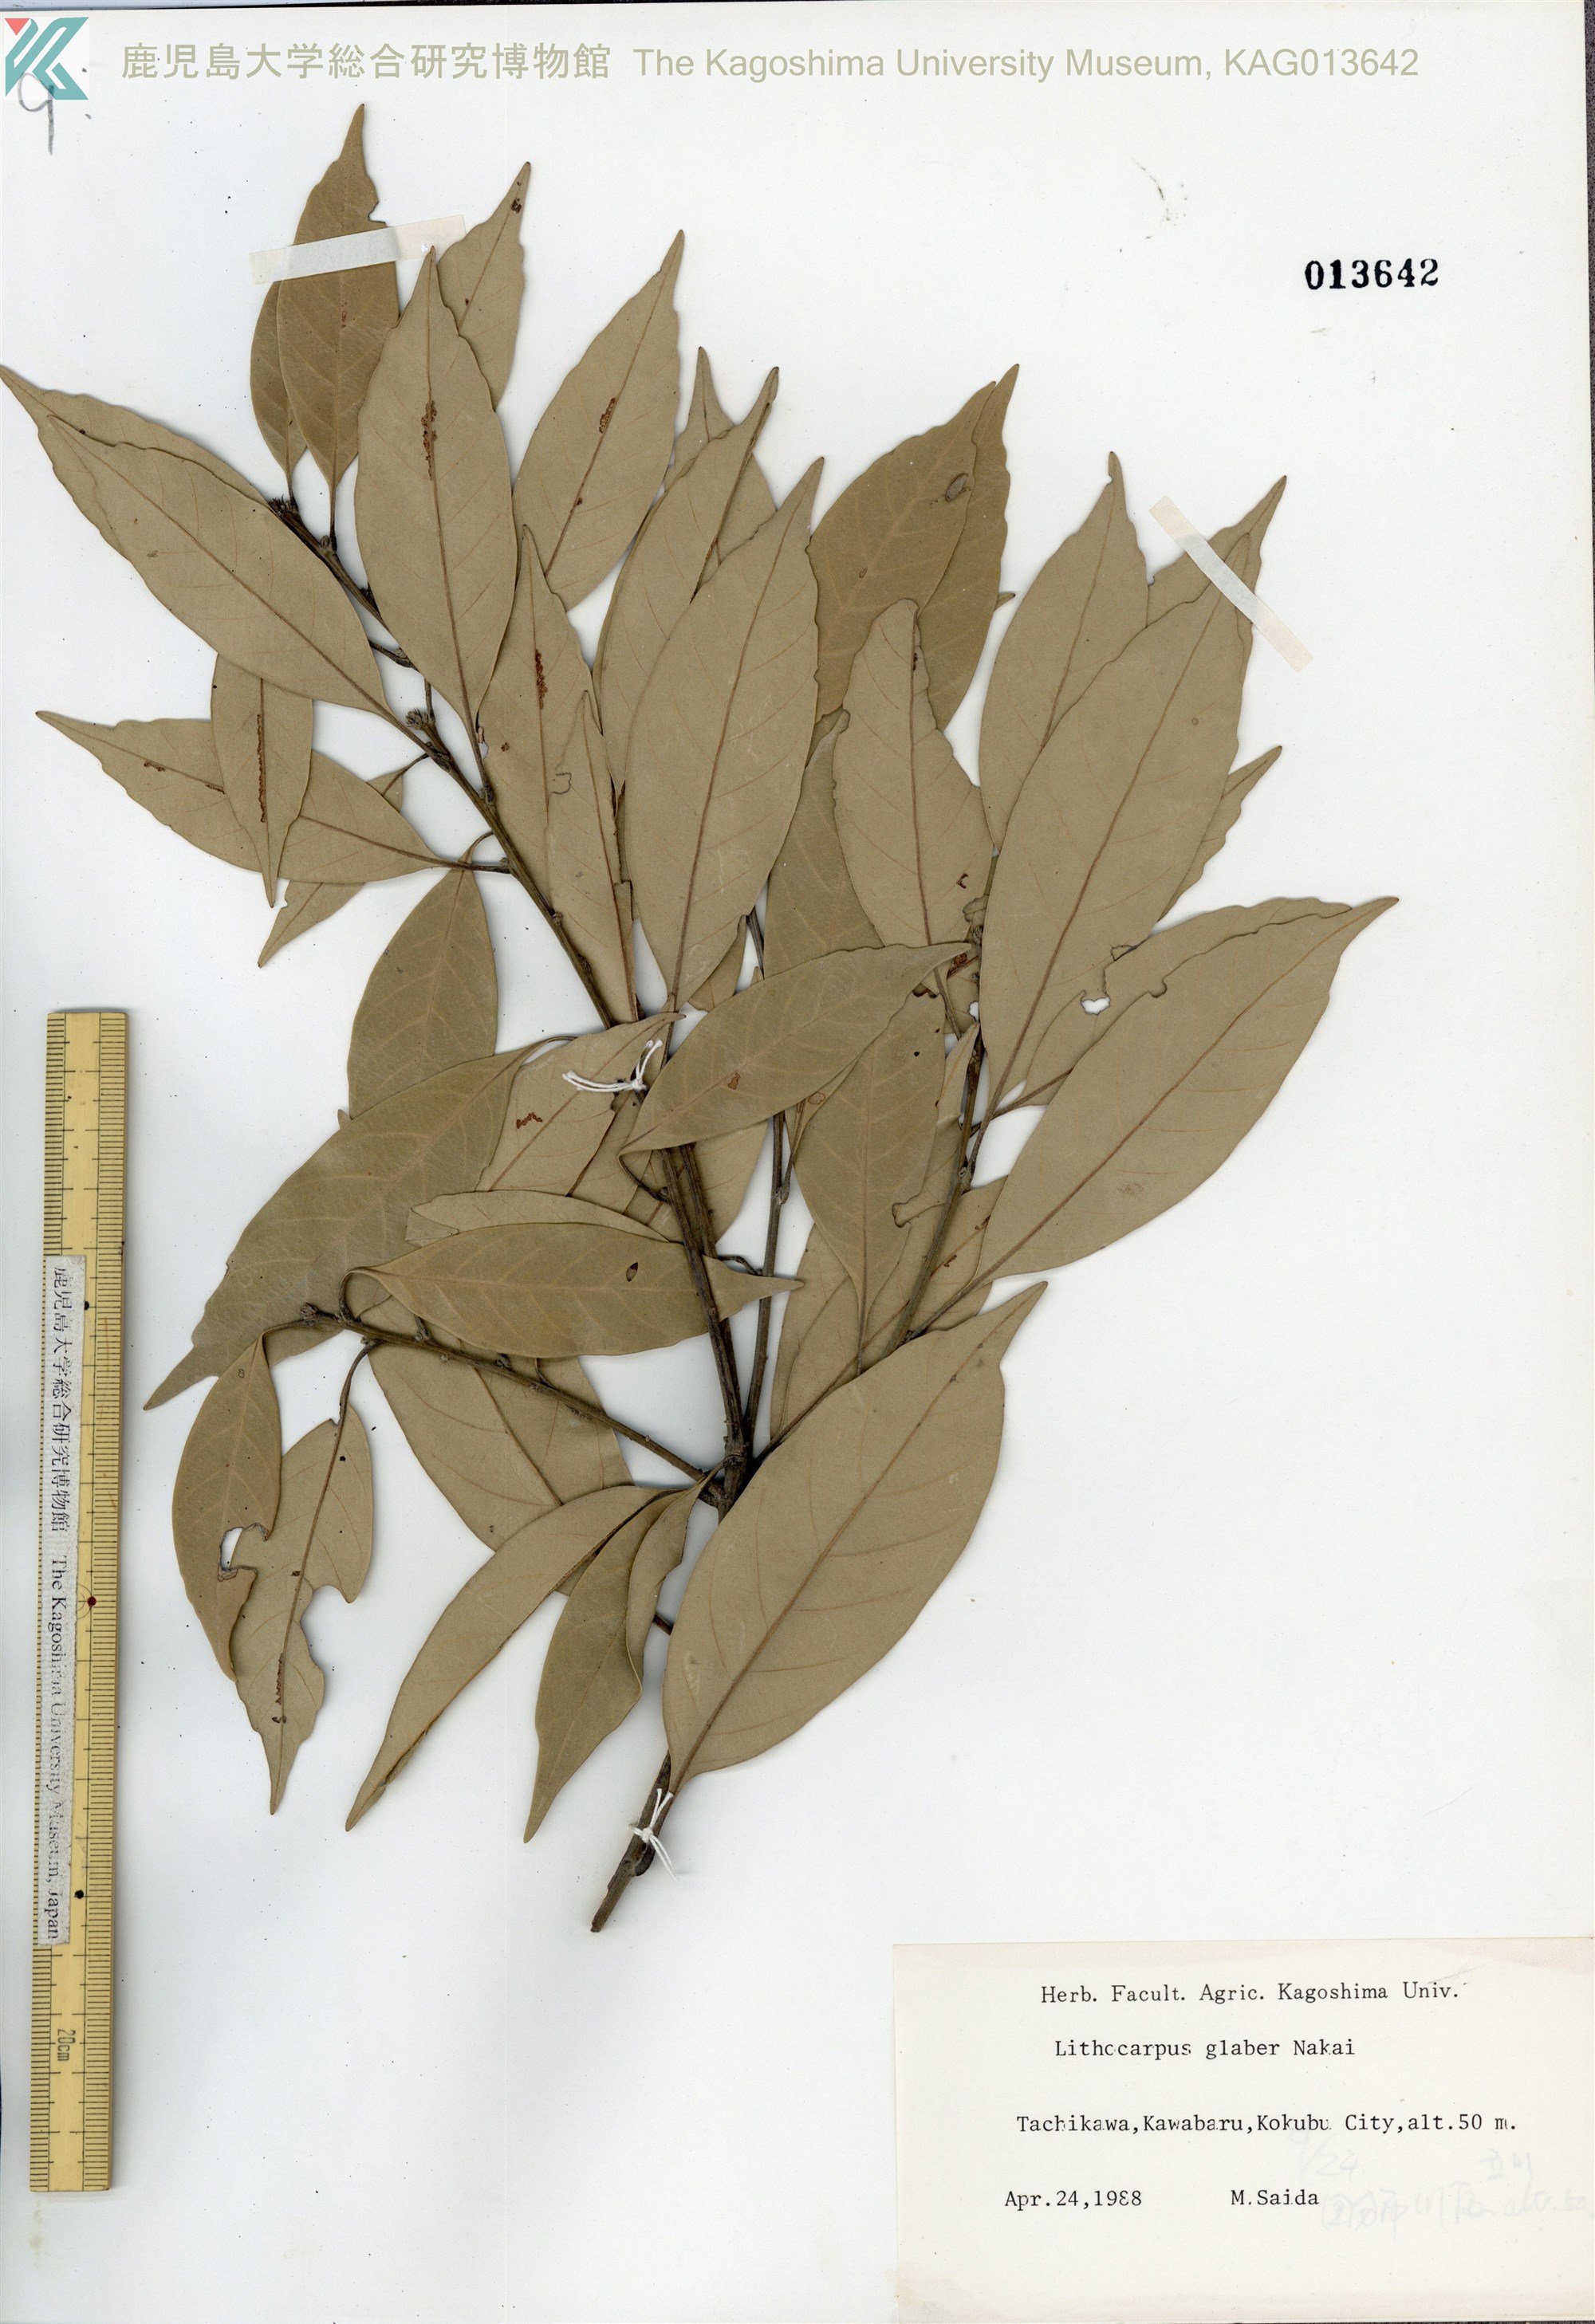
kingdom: Plantae
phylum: Tracheophyta
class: Magnoliopsida
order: Fagales
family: Fagaceae
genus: Lithocarpus
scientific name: Lithocarpus glaber
